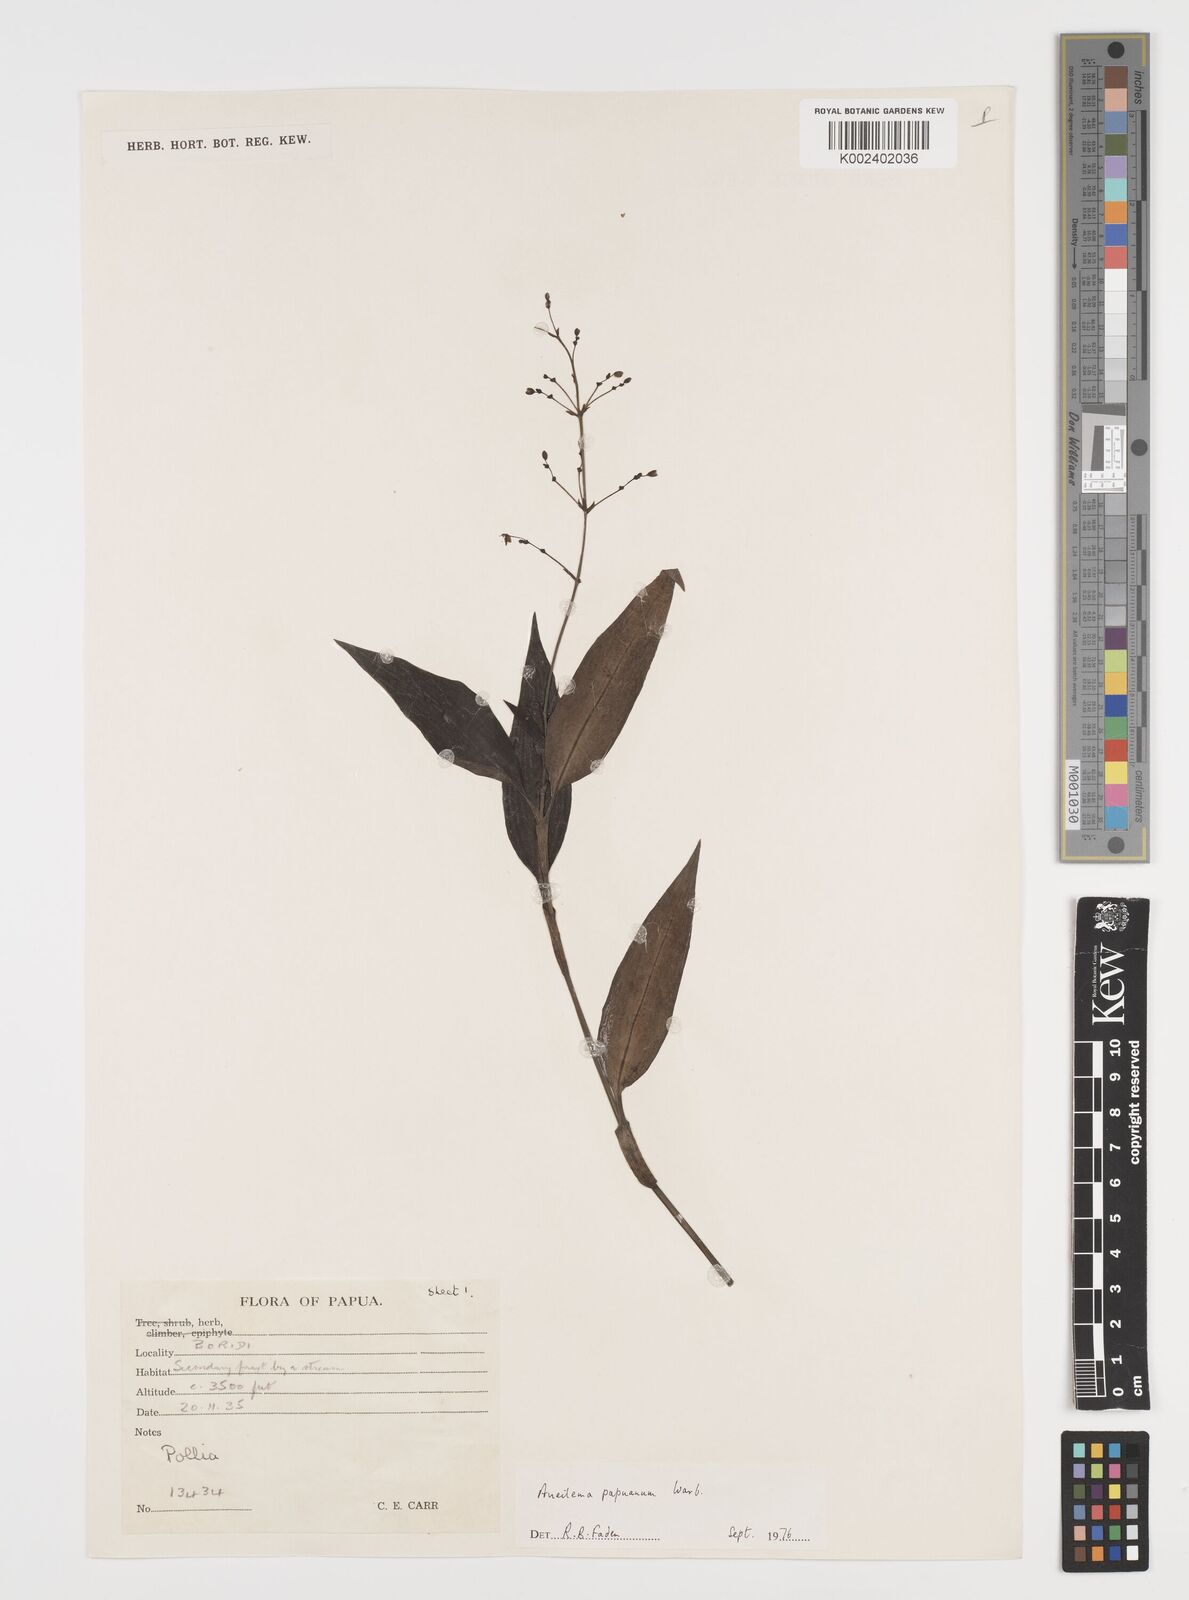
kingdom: Plantae
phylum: Tracheophyta
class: Liliopsida
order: Commelinales
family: Commelinaceae
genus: Aneilema
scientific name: Aneilema acuminatum
